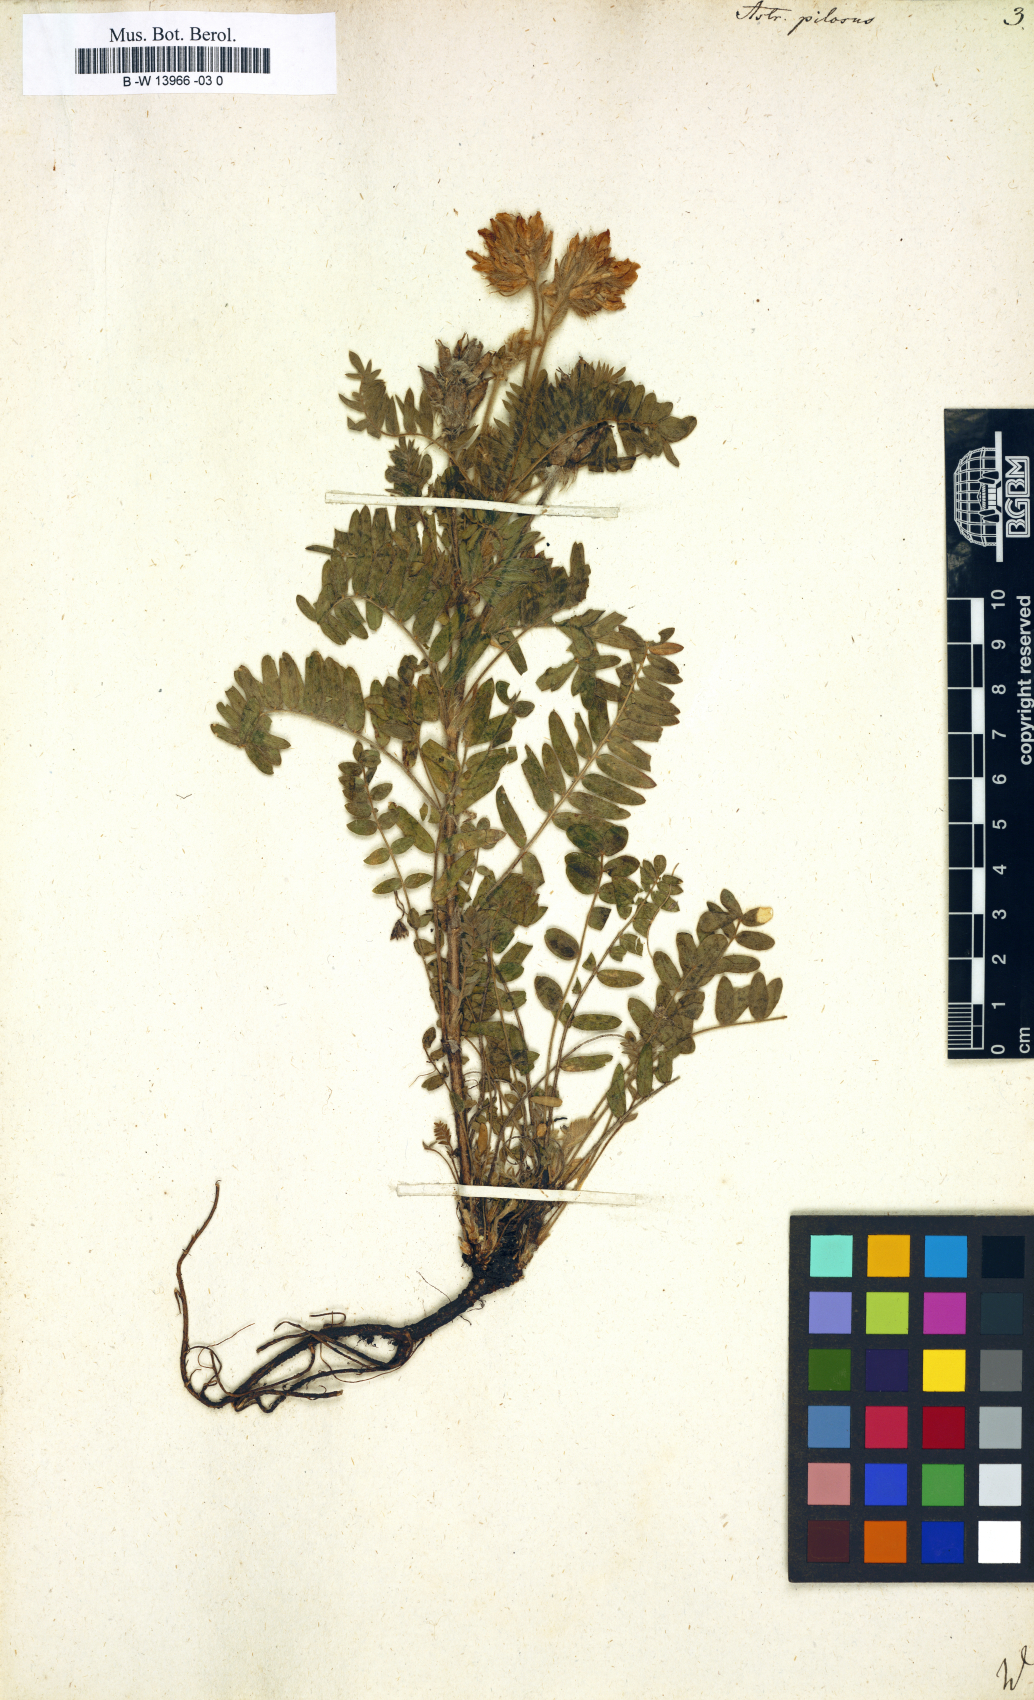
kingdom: Plantae
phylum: Tracheophyta
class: Magnoliopsida
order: Fabales
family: Fabaceae
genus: Oxytropis
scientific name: Oxytropis pilosa
